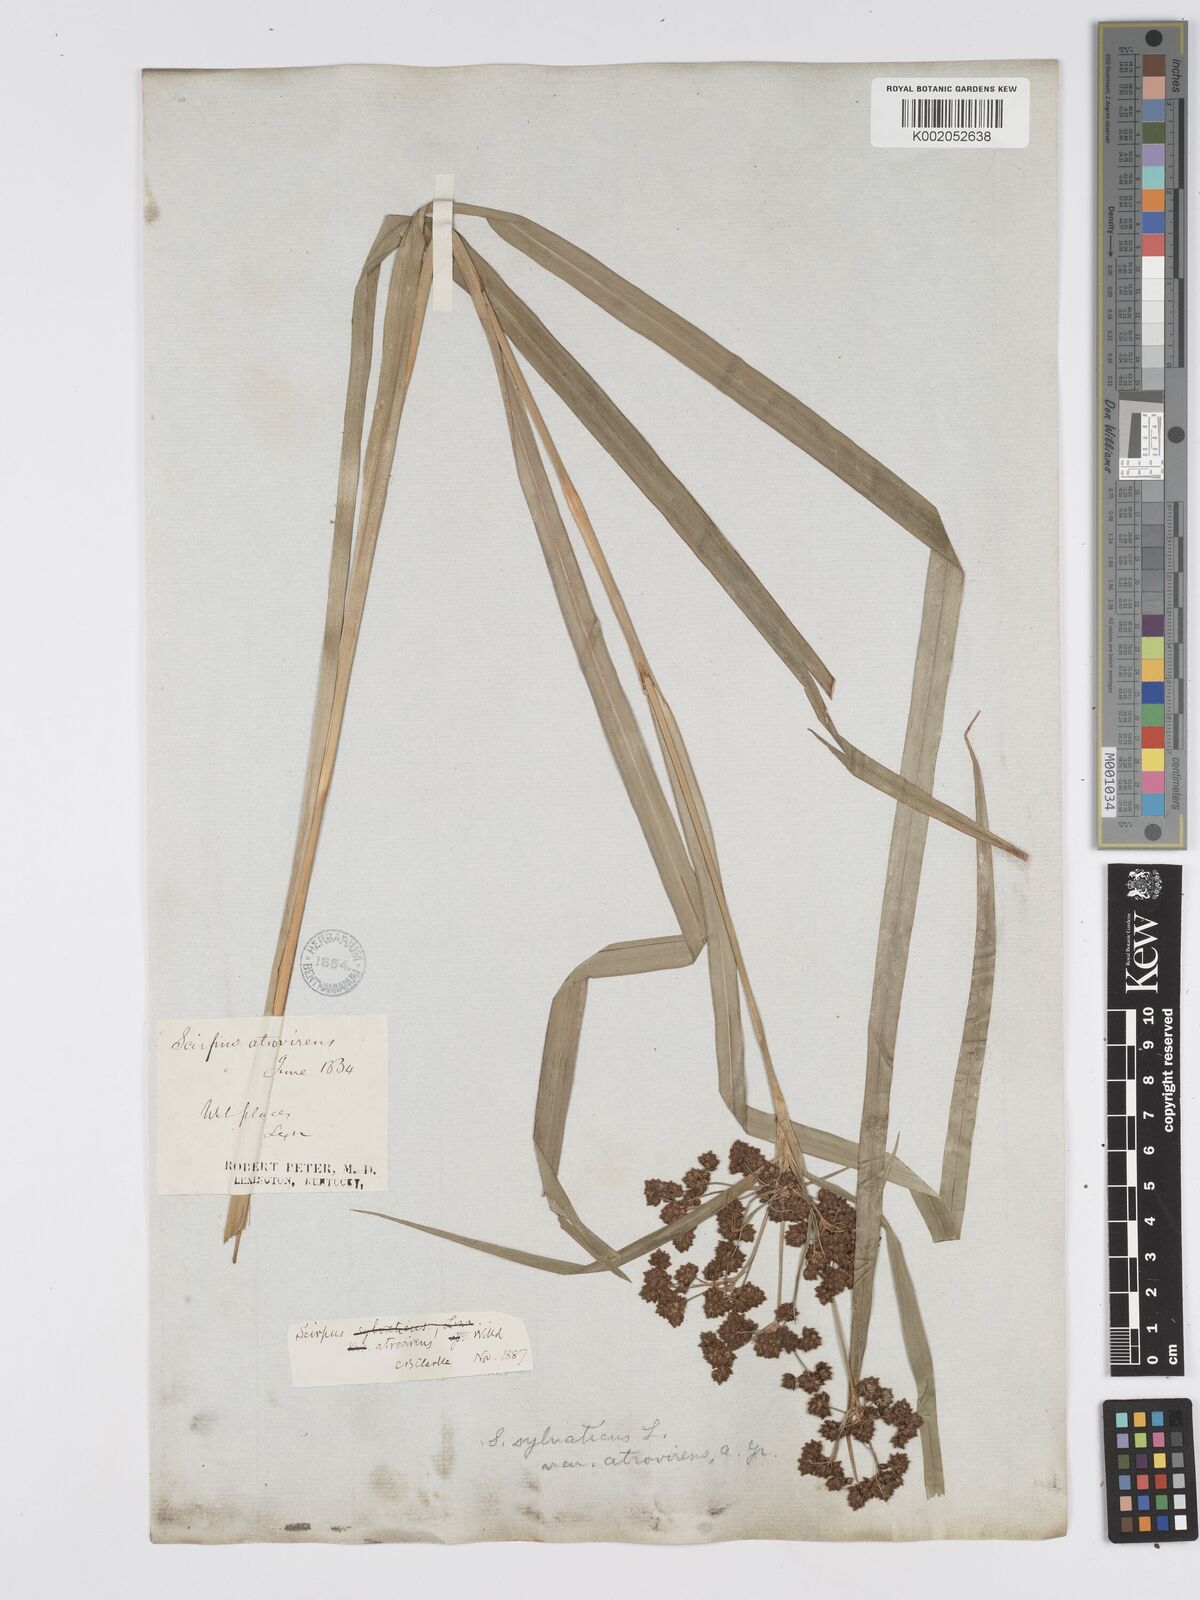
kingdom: Plantae
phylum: Tracheophyta
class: Liliopsida
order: Poales
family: Cyperaceae
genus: Scirpus
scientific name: Scirpus atrovirens
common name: Black bulrush
